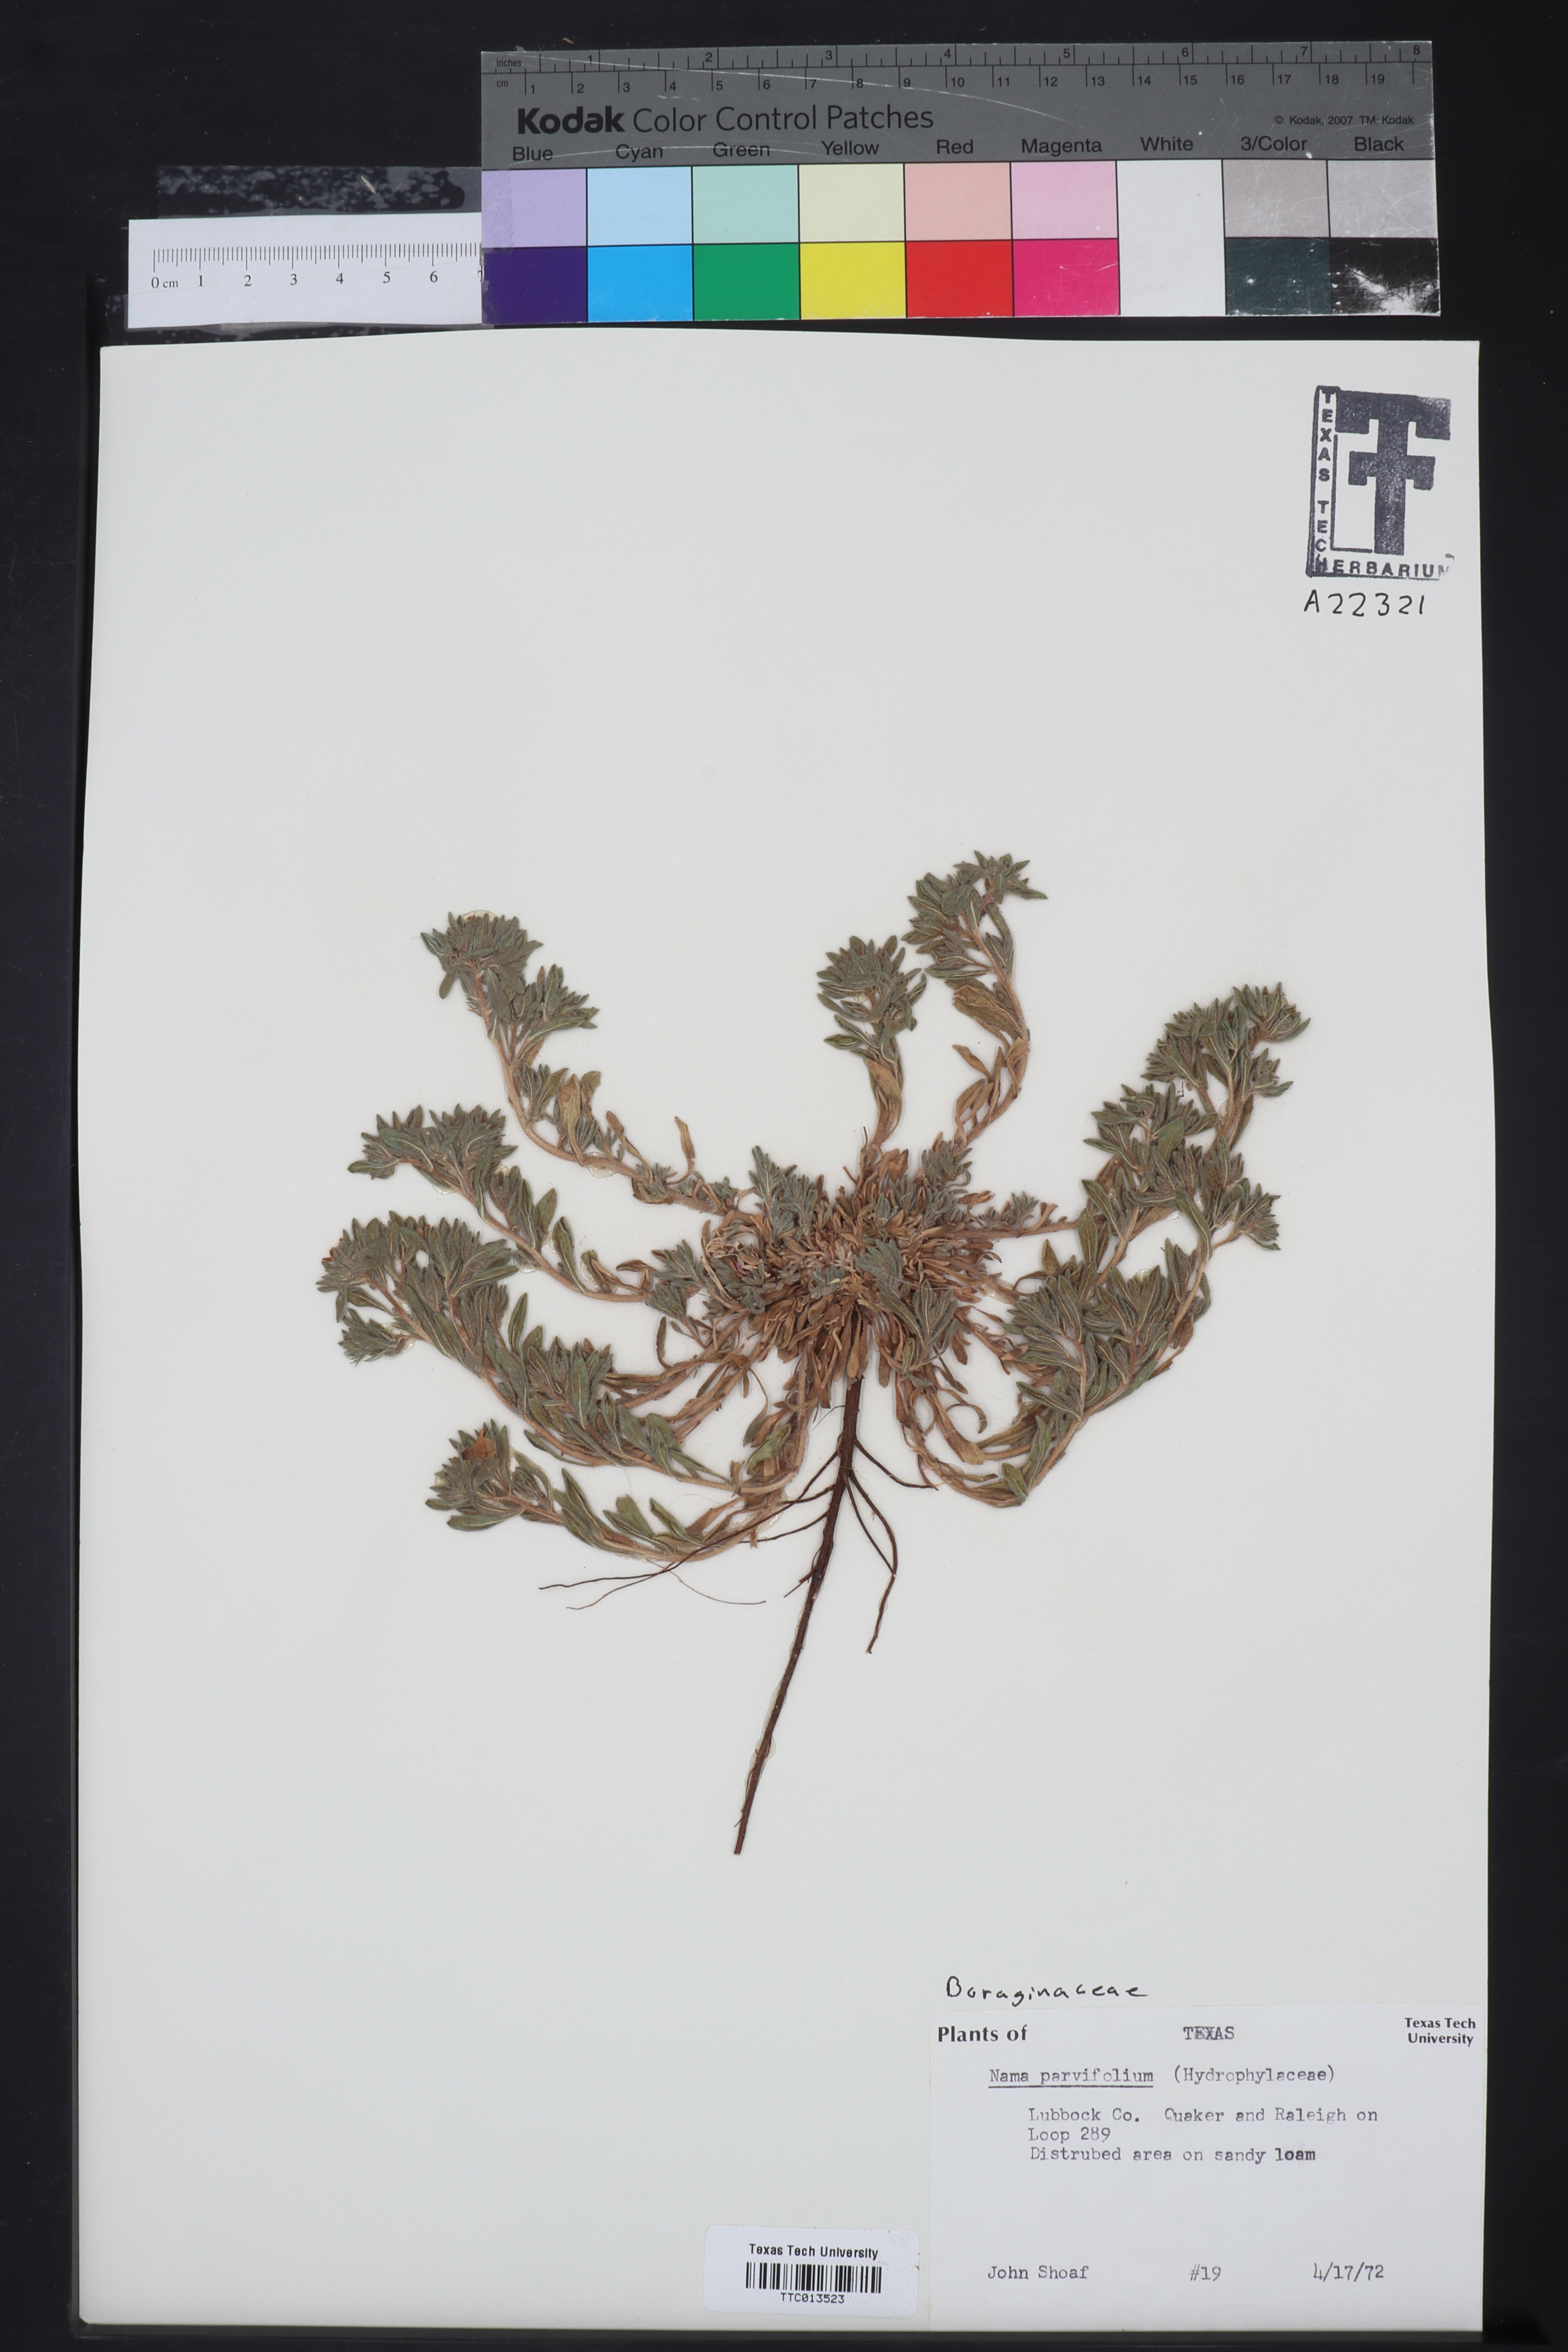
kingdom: Plantae
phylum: Tracheophyta
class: Magnoliopsida
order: Boraginales
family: Namaceae
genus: Nama
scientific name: Nama parvifolia
